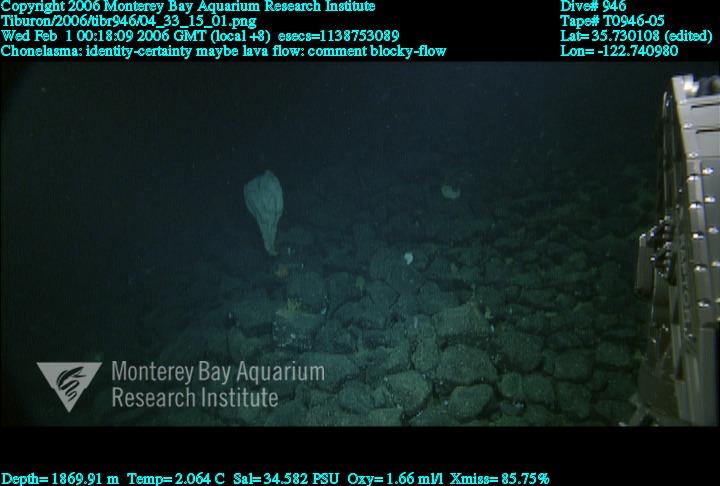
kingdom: Animalia
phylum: Porifera
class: Hexactinellida
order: Sceptrulophora
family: Euretidae
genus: Chonelasma
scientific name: Chonelasma
